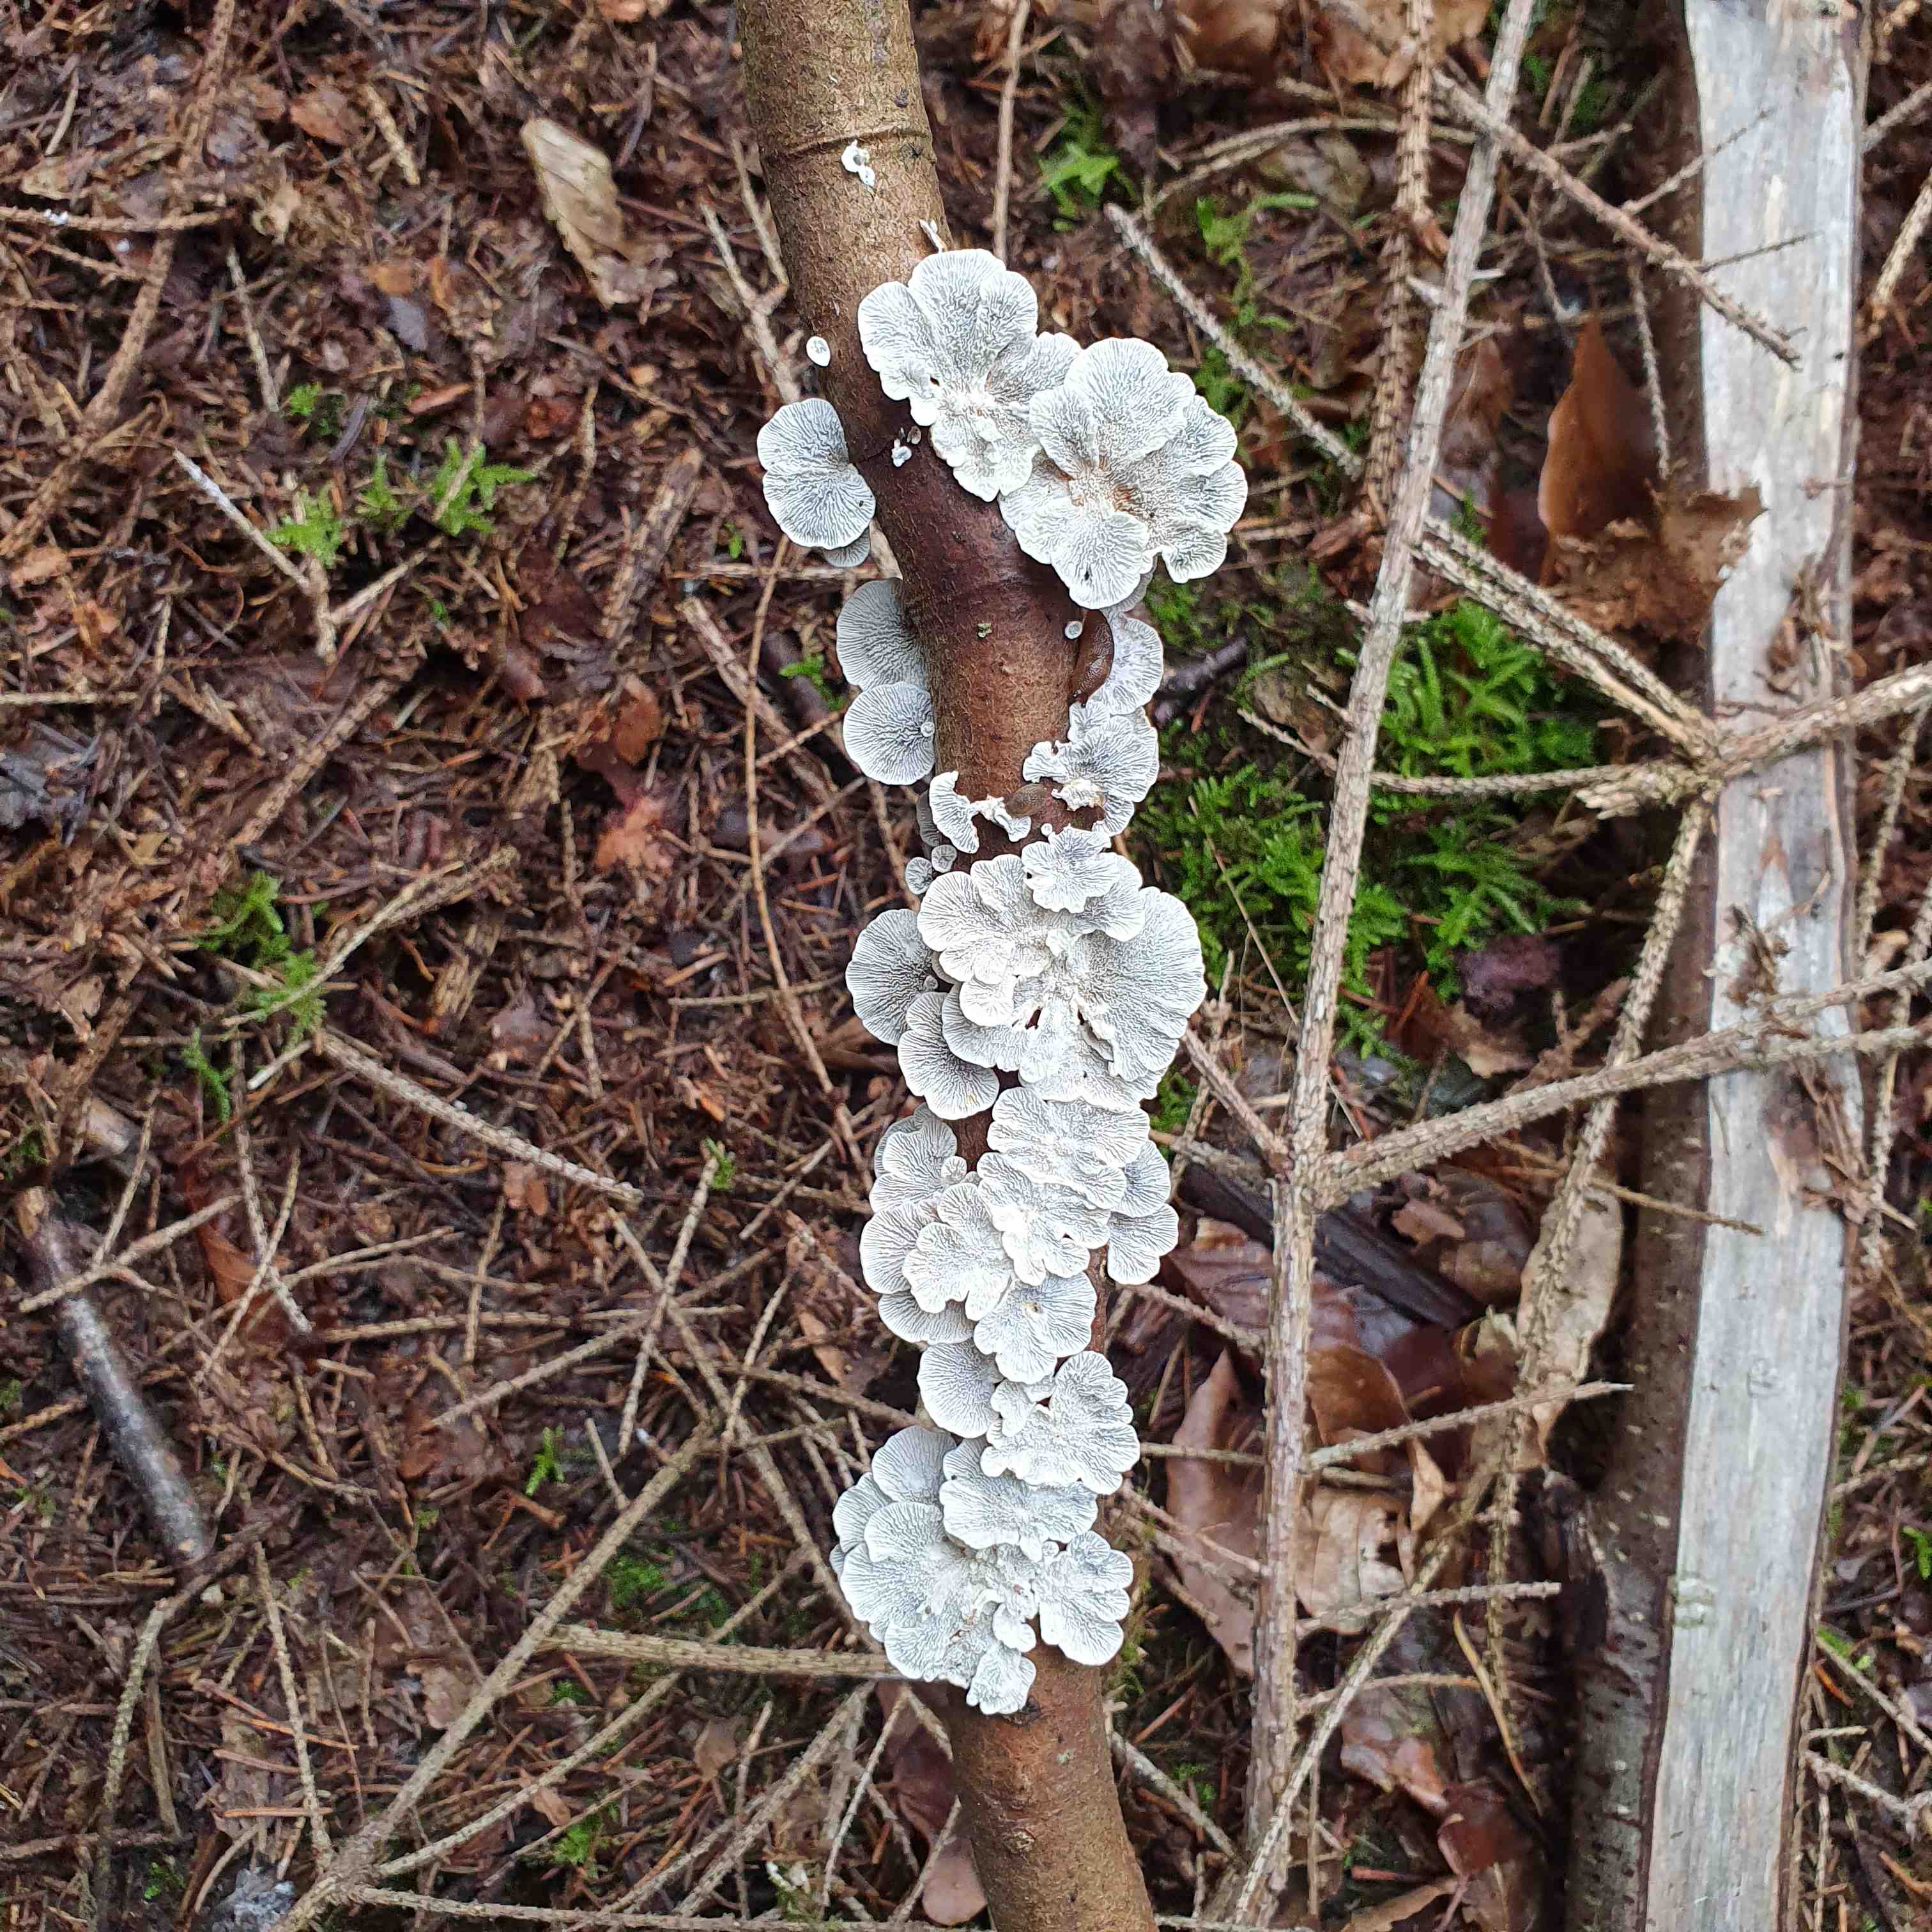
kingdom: Fungi
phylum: Basidiomycota
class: Agaricomycetes
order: Amylocorticiales
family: Amylocorticiaceae
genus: Plicaturopsis
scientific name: Plicaturopsis crispa
